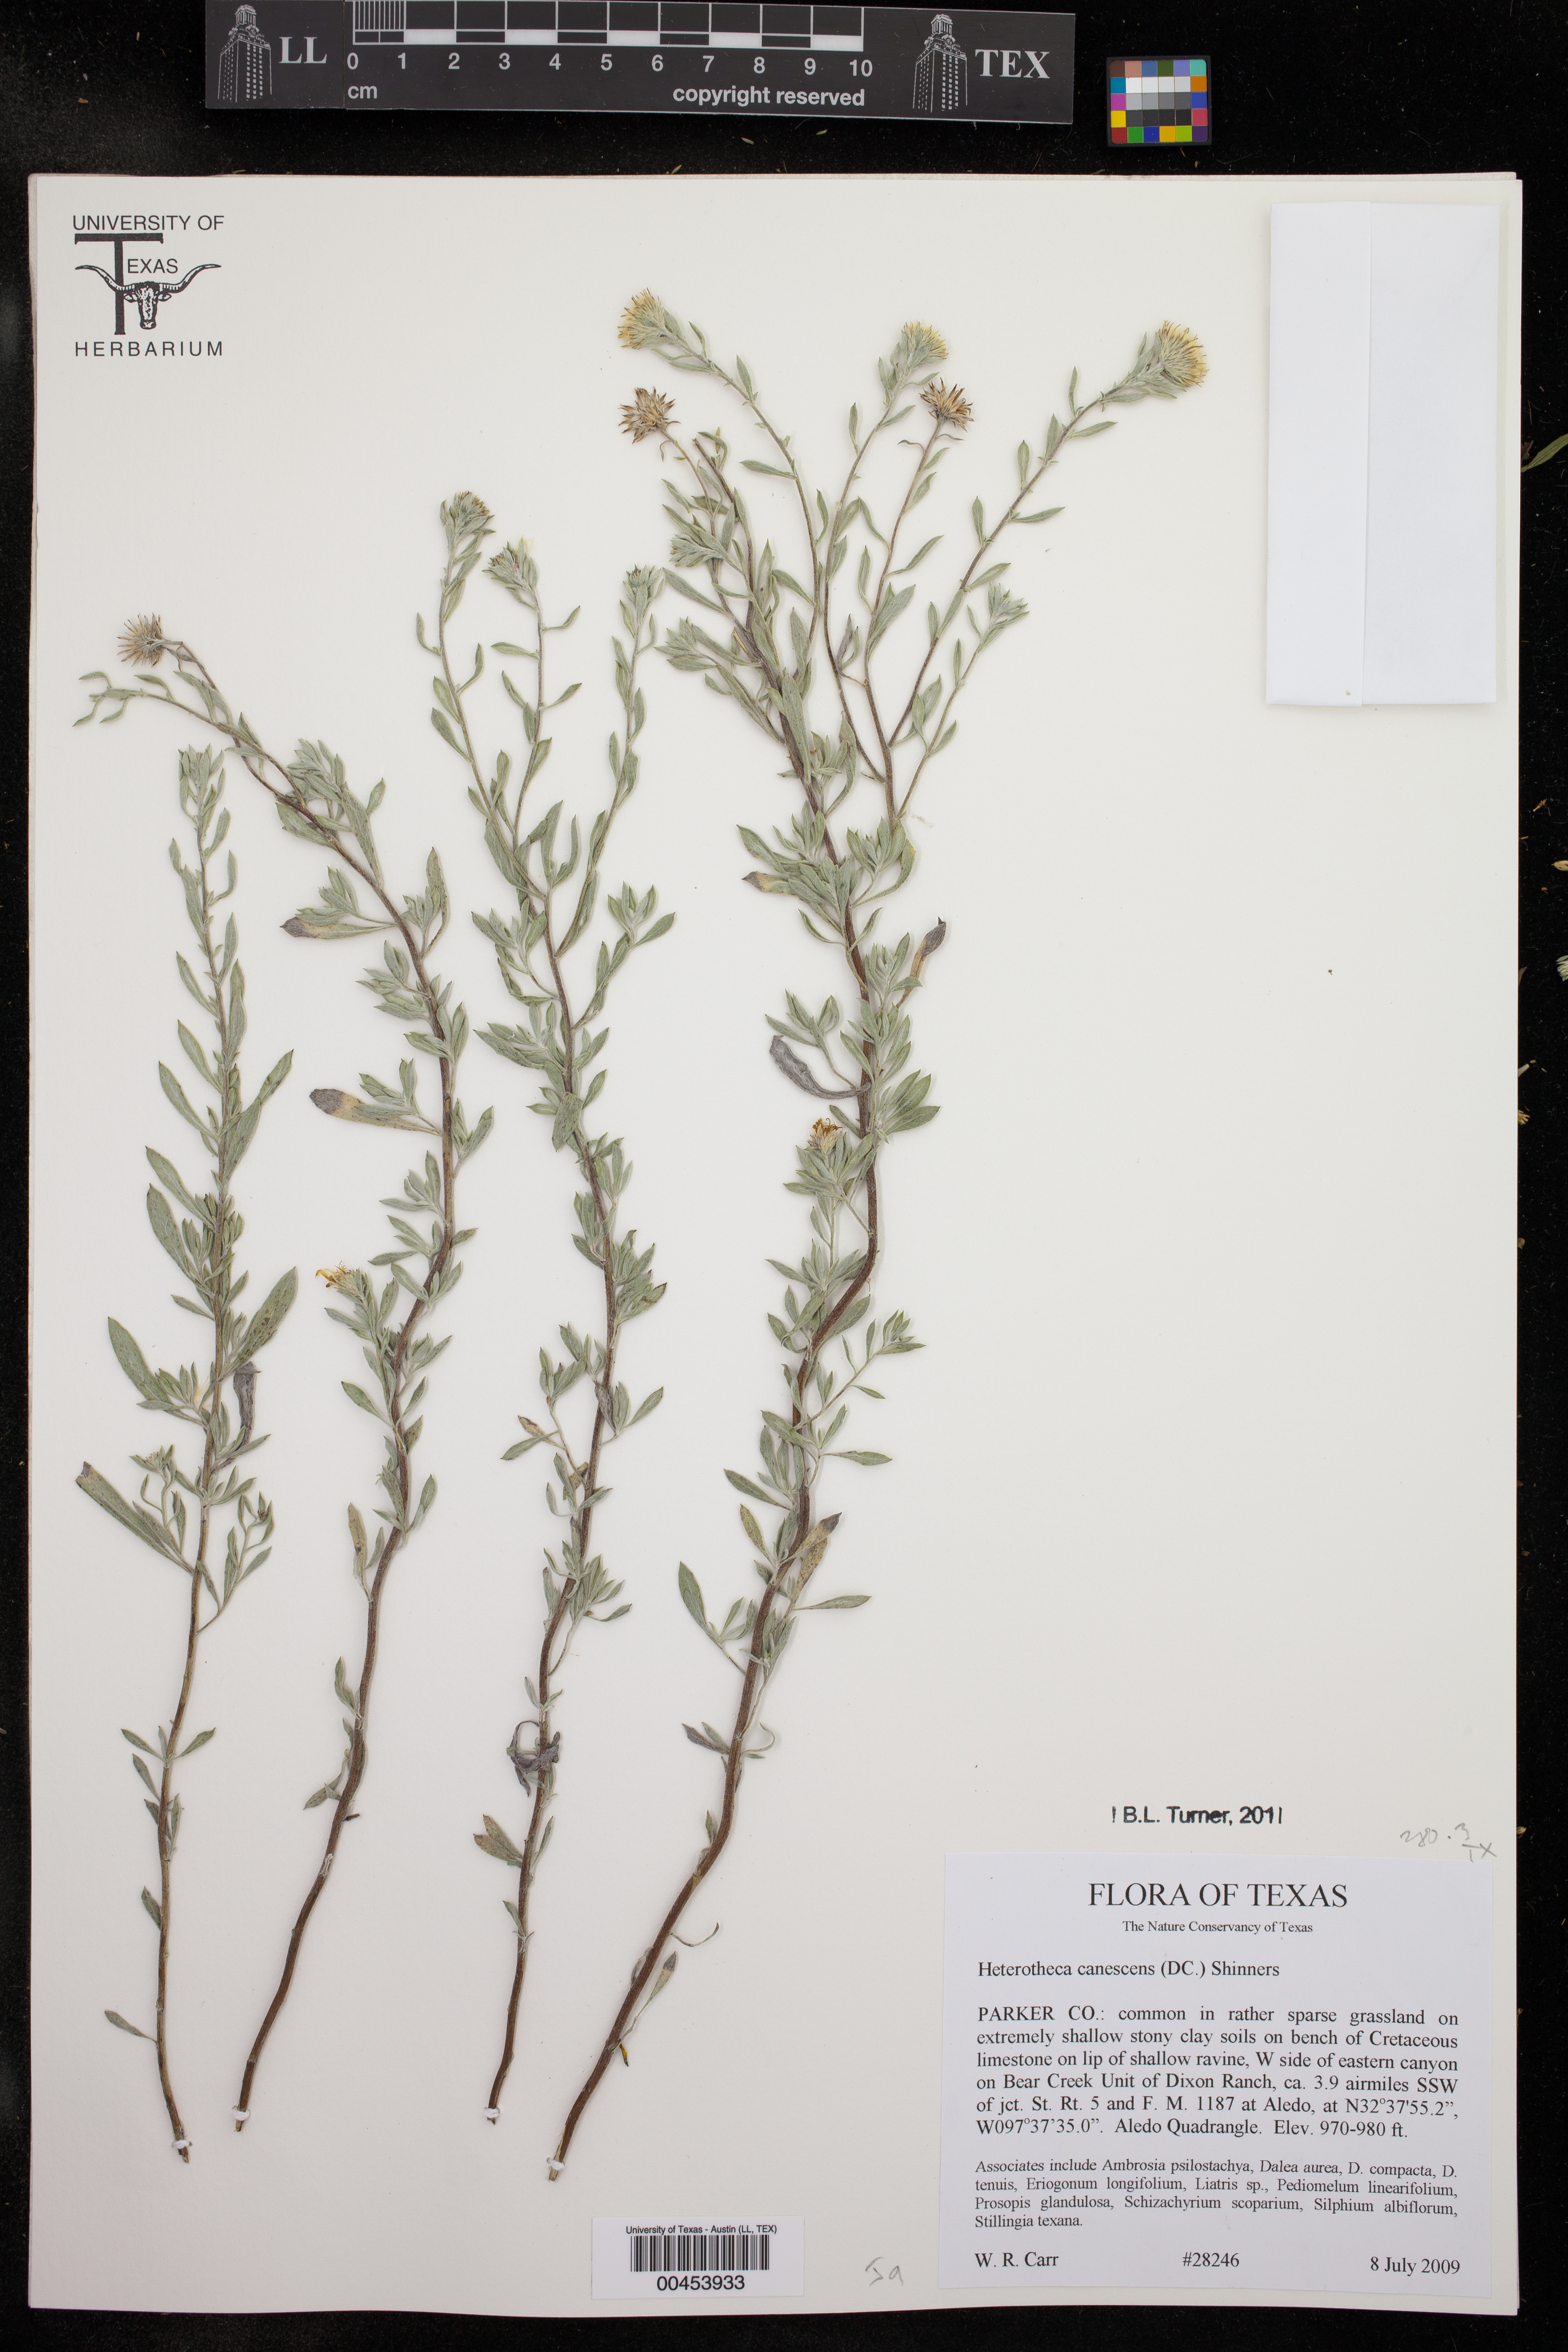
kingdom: Plantae
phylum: Tracheophyta
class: Magnoliopsida
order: Asterales
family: Asteraceae
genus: Heterotheca
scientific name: Heterotheca canescens
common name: Hoary golden-aster
